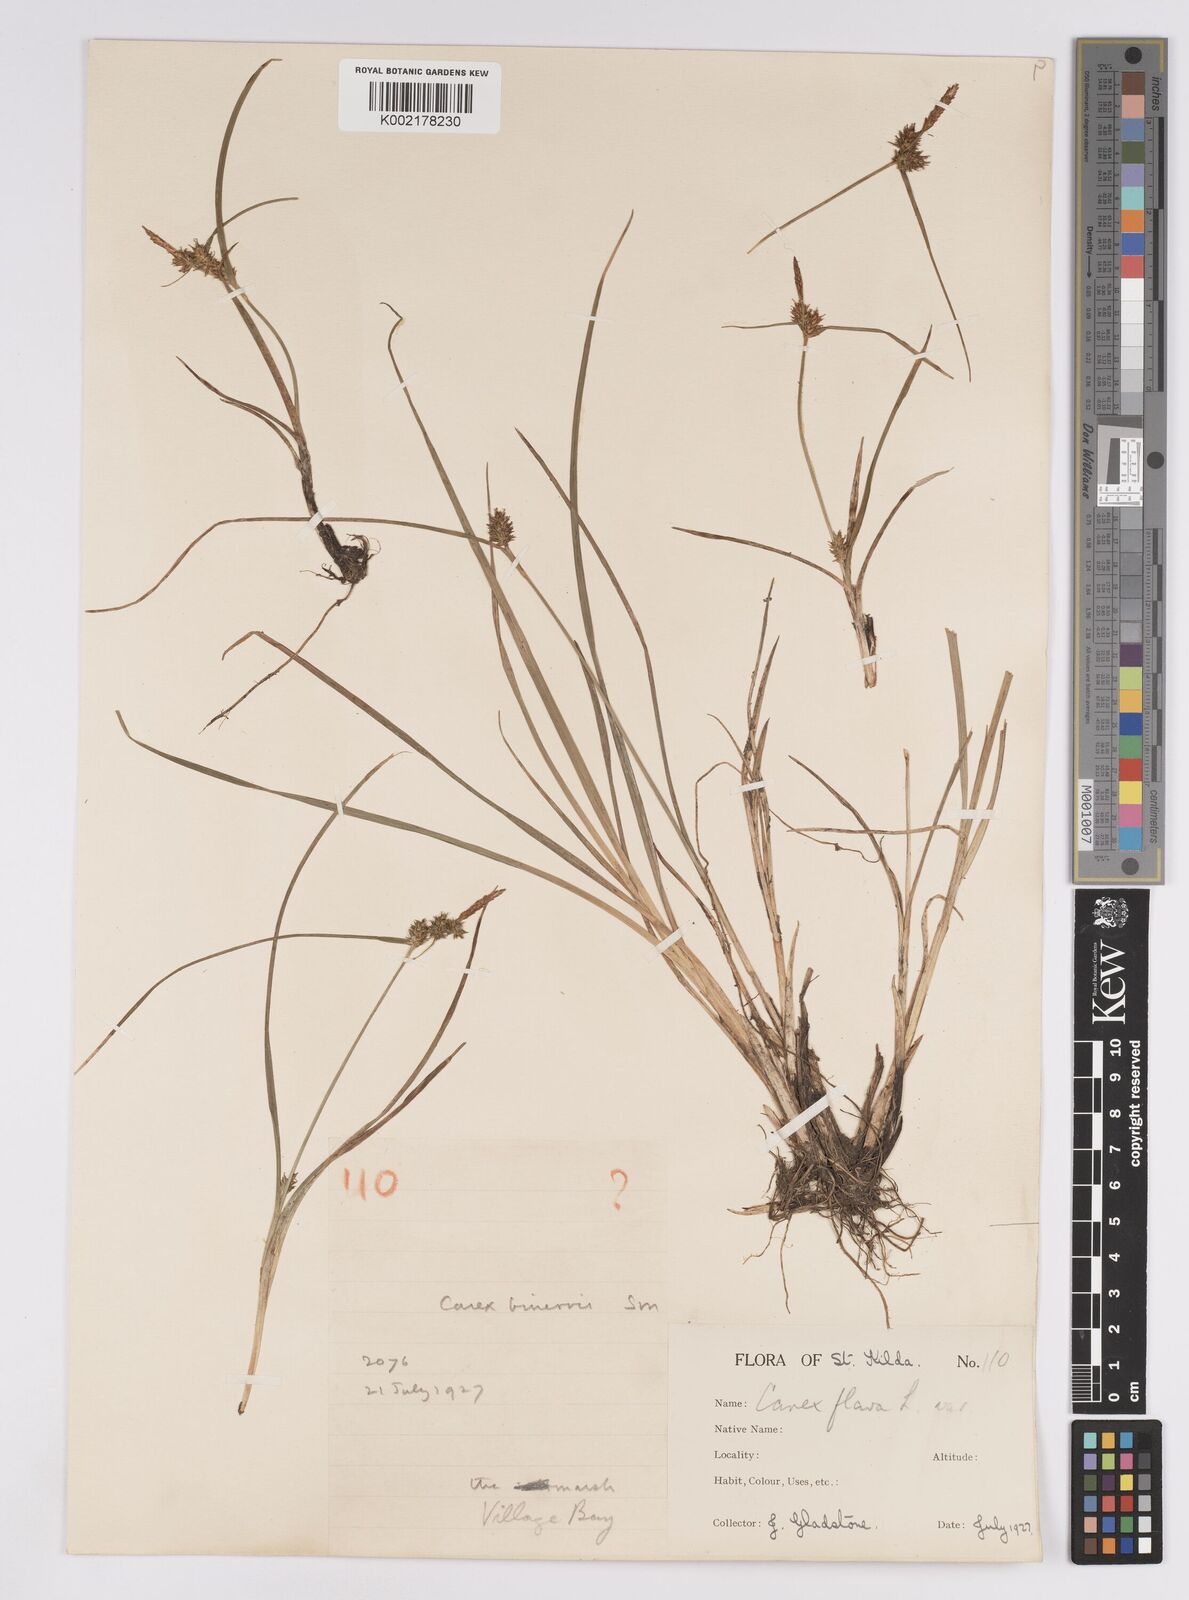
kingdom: Plantae
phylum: Tracheophyta
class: Liliopsida
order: Poales
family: Cyperaceae
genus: Carex
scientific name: Carex demissa
